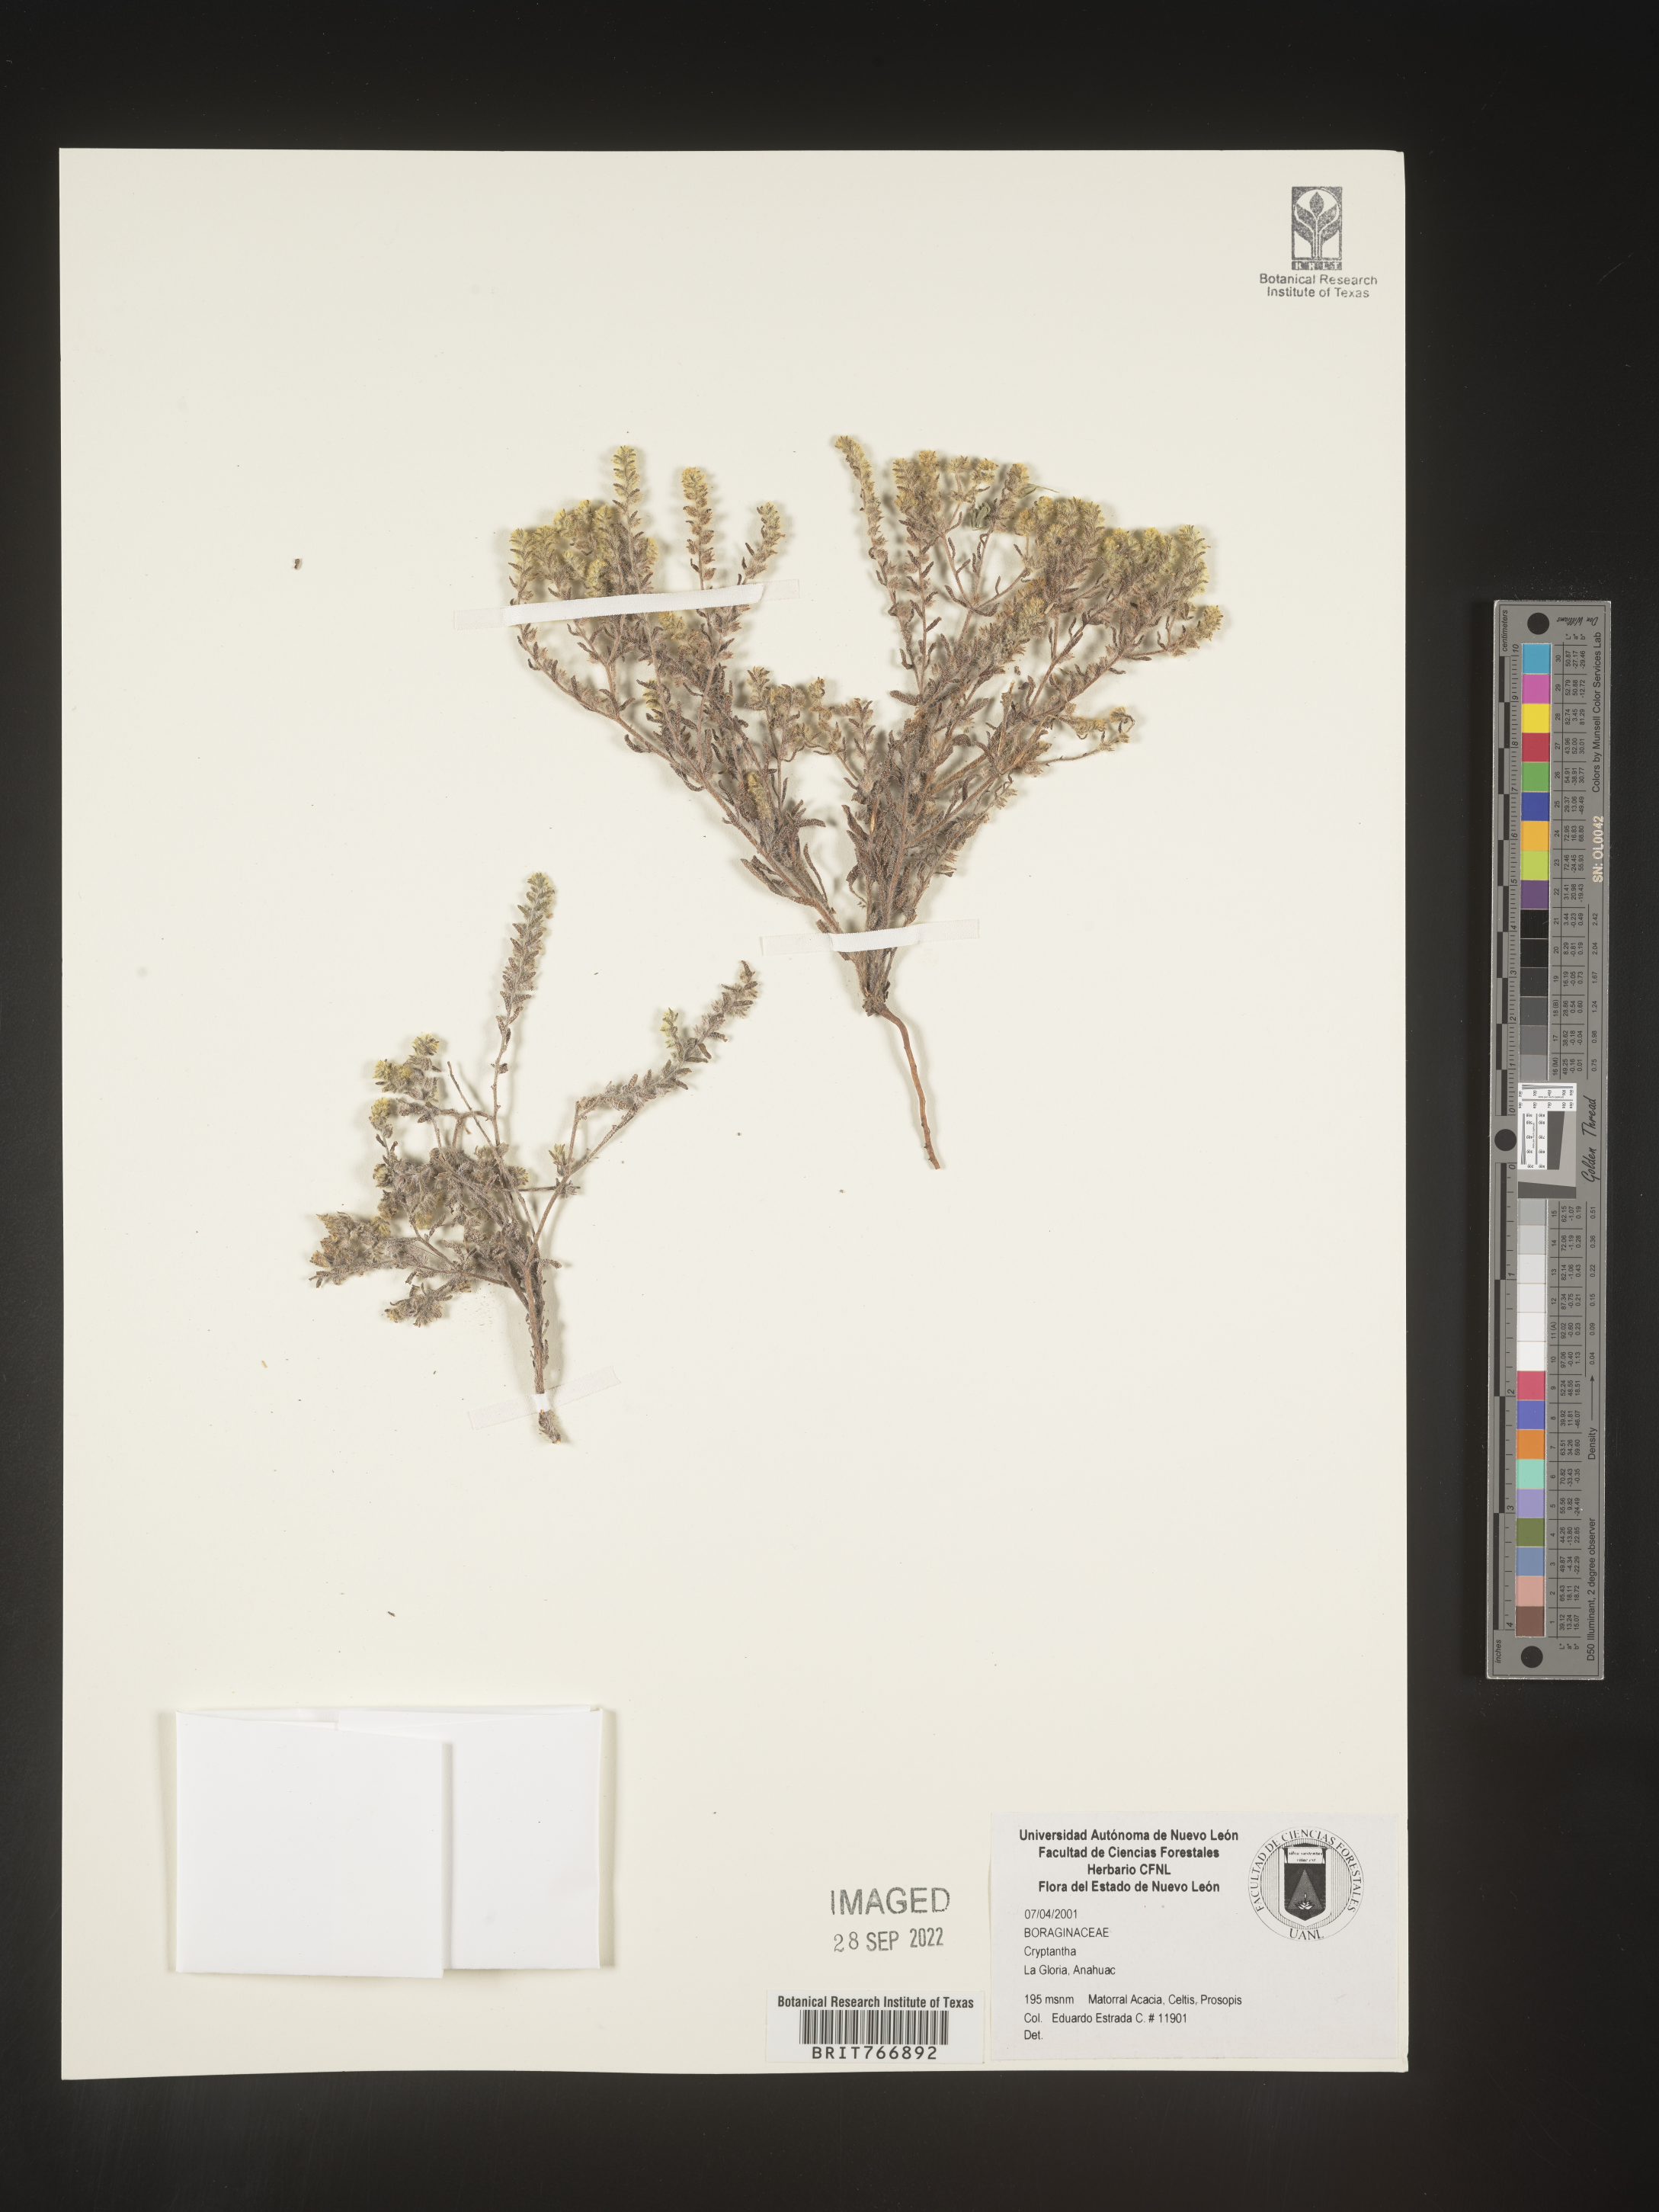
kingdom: Plantae
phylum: Tracheophyta
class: Magnoliopsida
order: Boraginales
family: Boraginaceae
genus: Cryptantha
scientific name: Cryptantha
